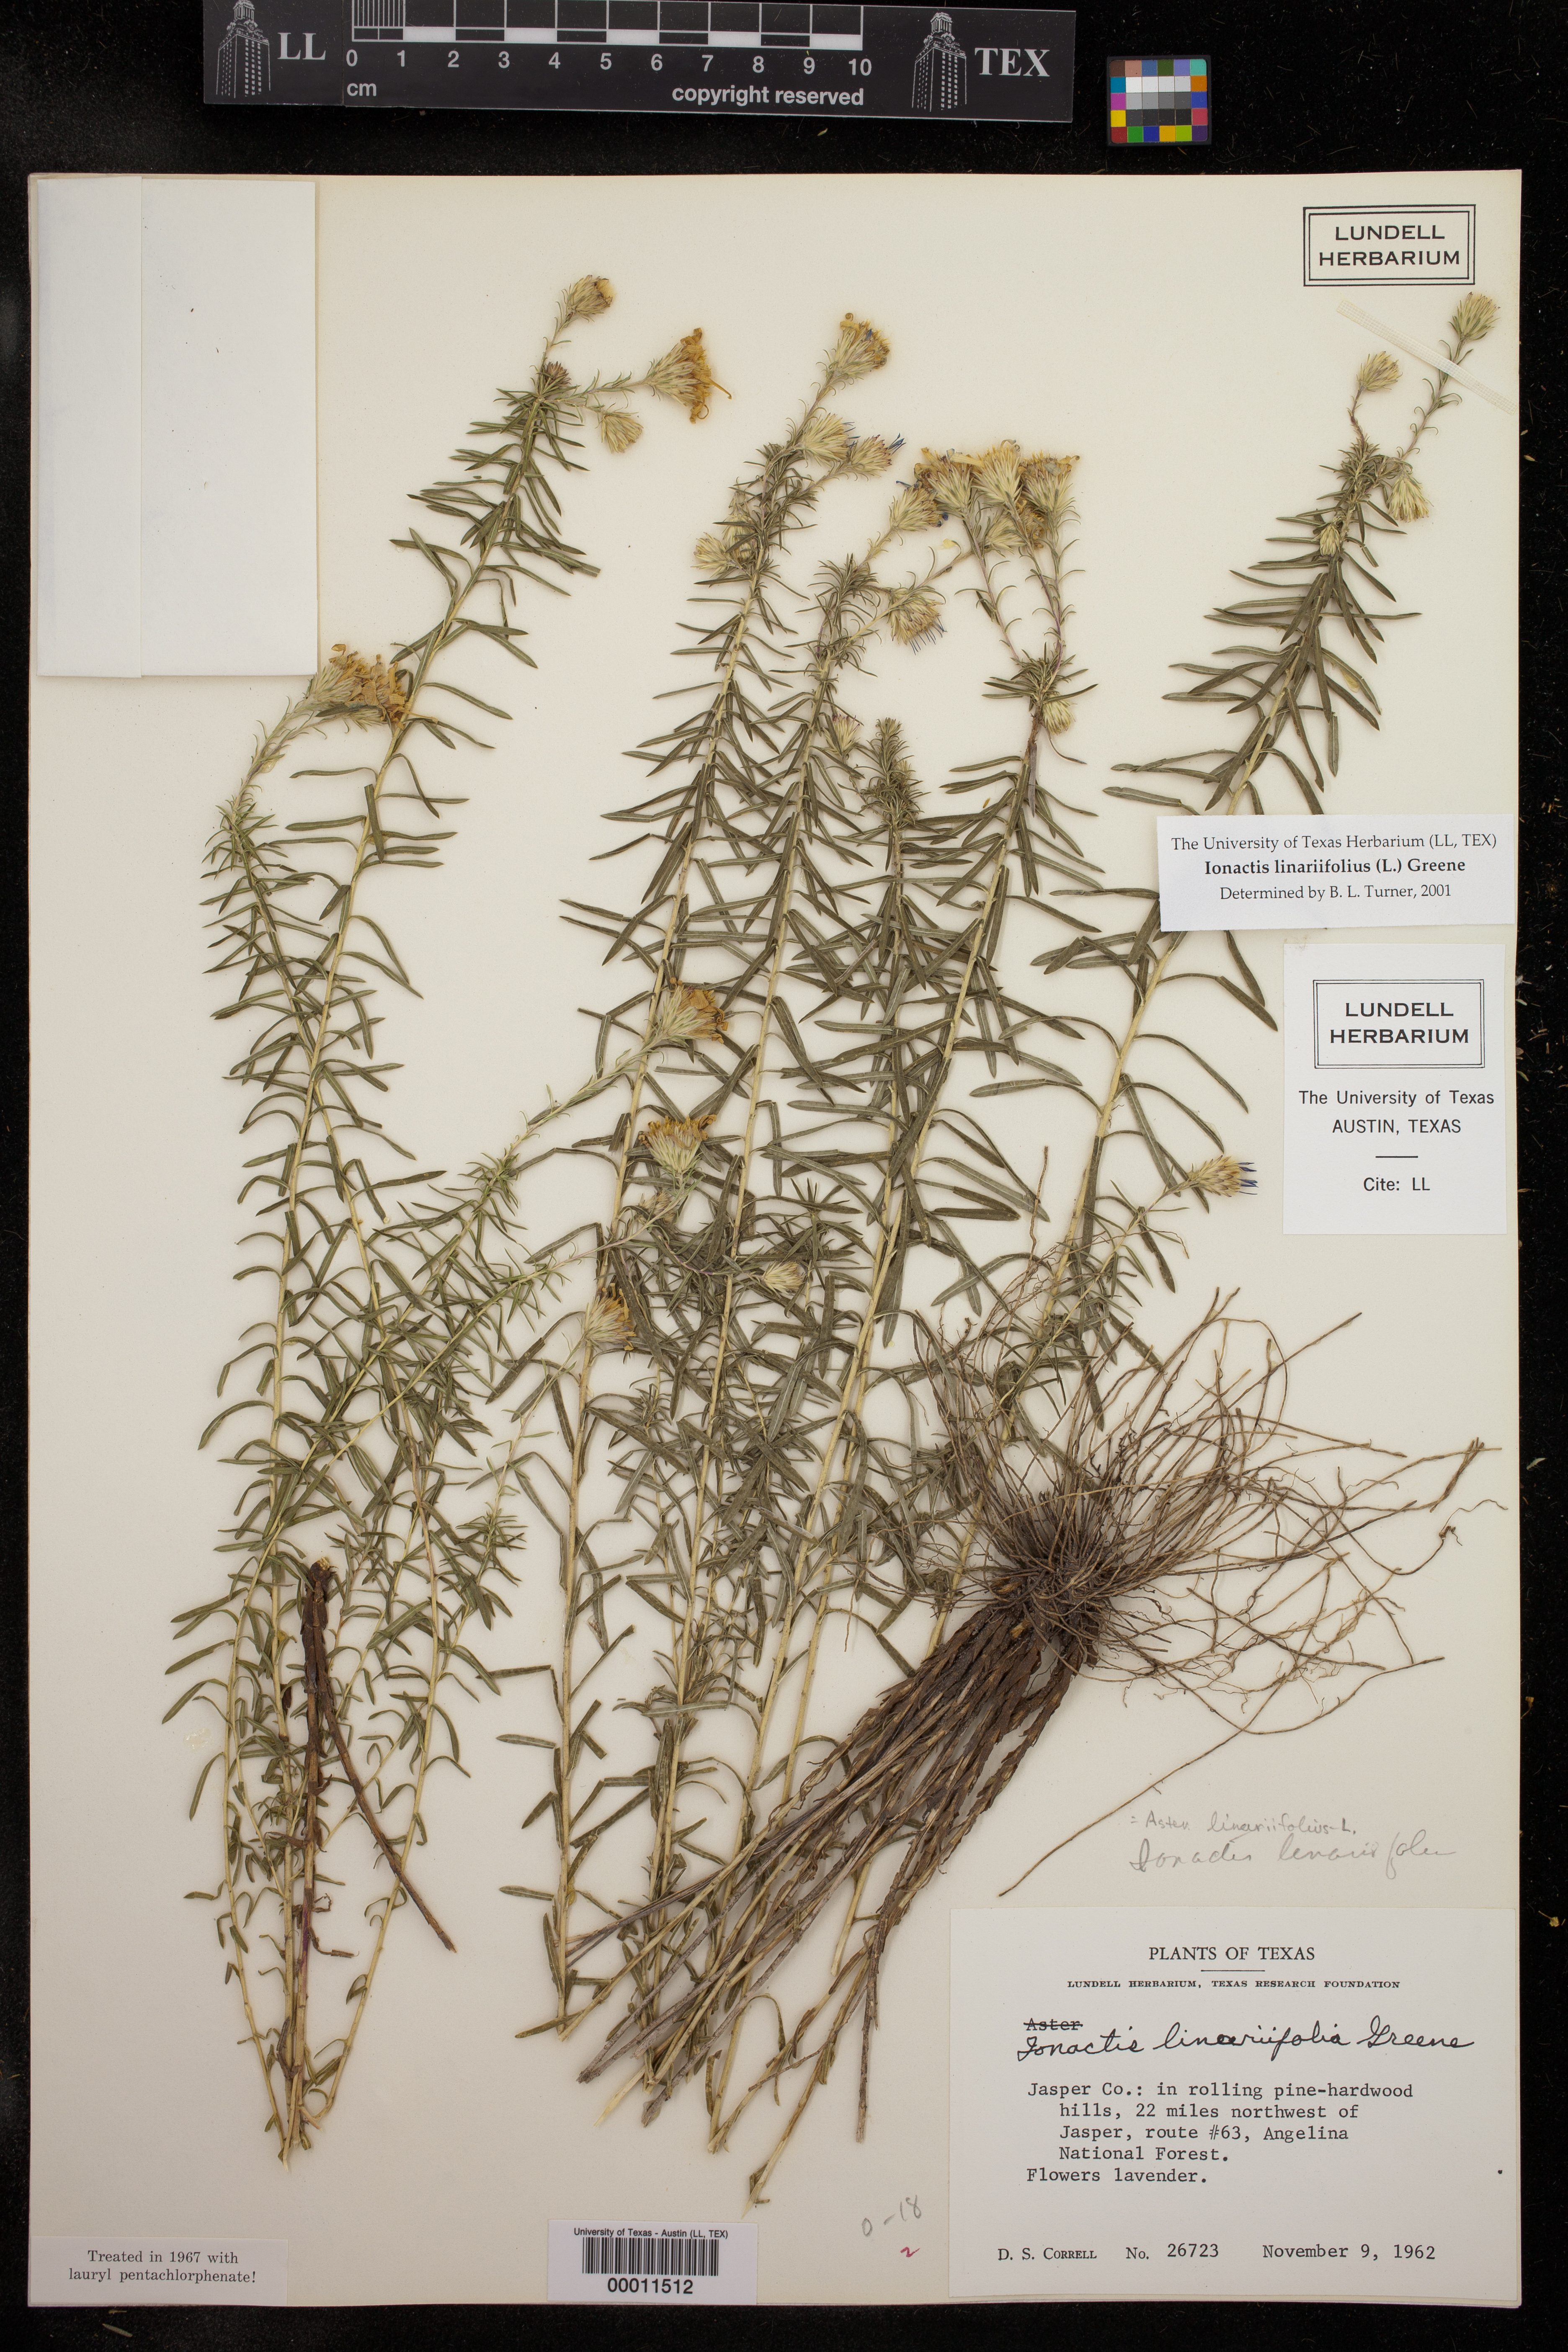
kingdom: Plantae
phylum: Tracheophyta
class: Magnoliopsida
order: Asterales
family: Asteraceae
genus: Ionactis
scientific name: Ionactis linariifolia
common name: Flax-leaf aster
